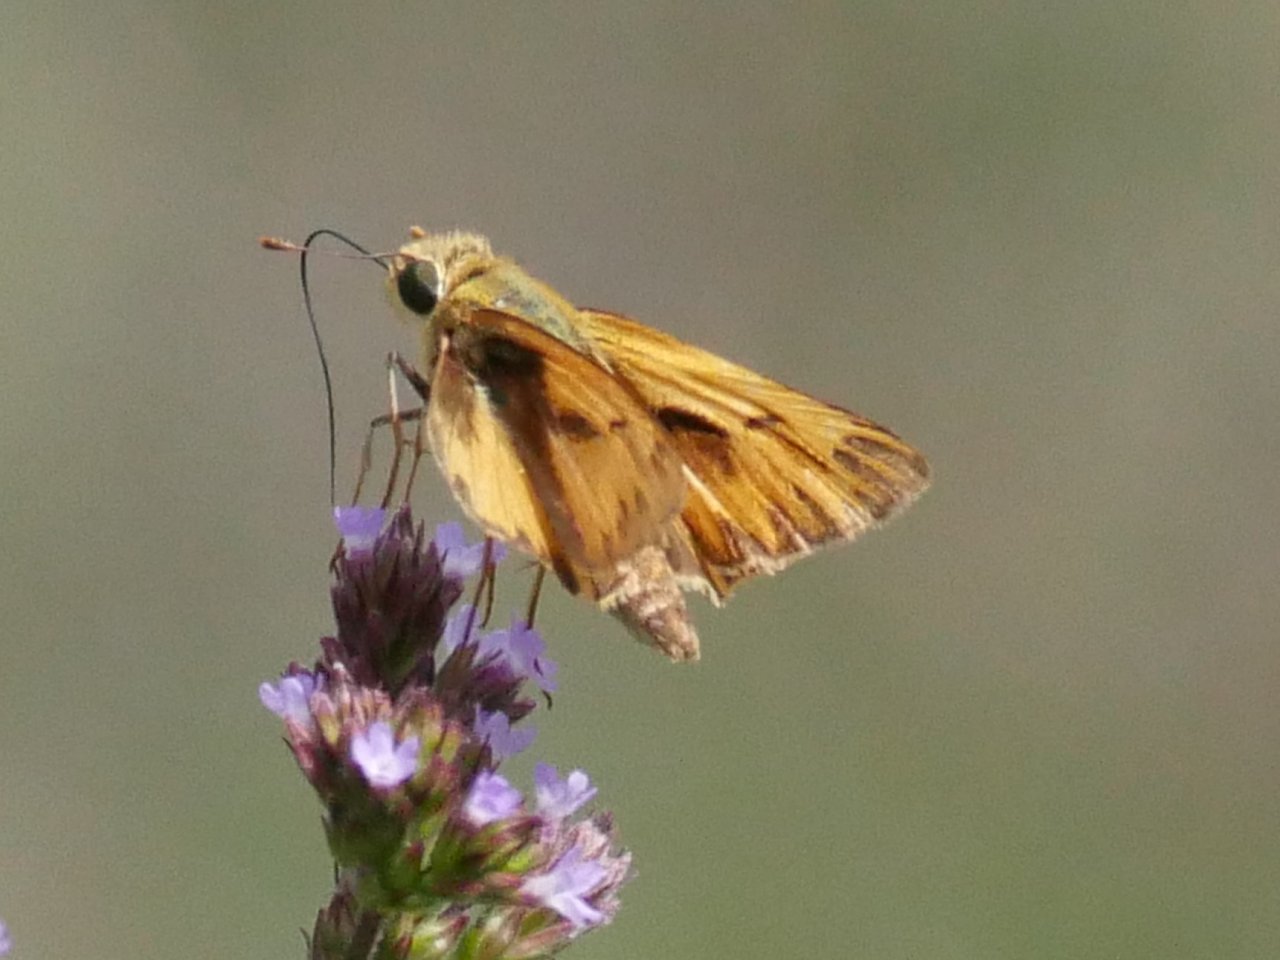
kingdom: Animalia
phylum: Arthropoda
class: Insecta
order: Lepidoptera
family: Hesperiidae
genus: Hylephila
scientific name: Hylephila phyleus
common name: Fiery Skipper
